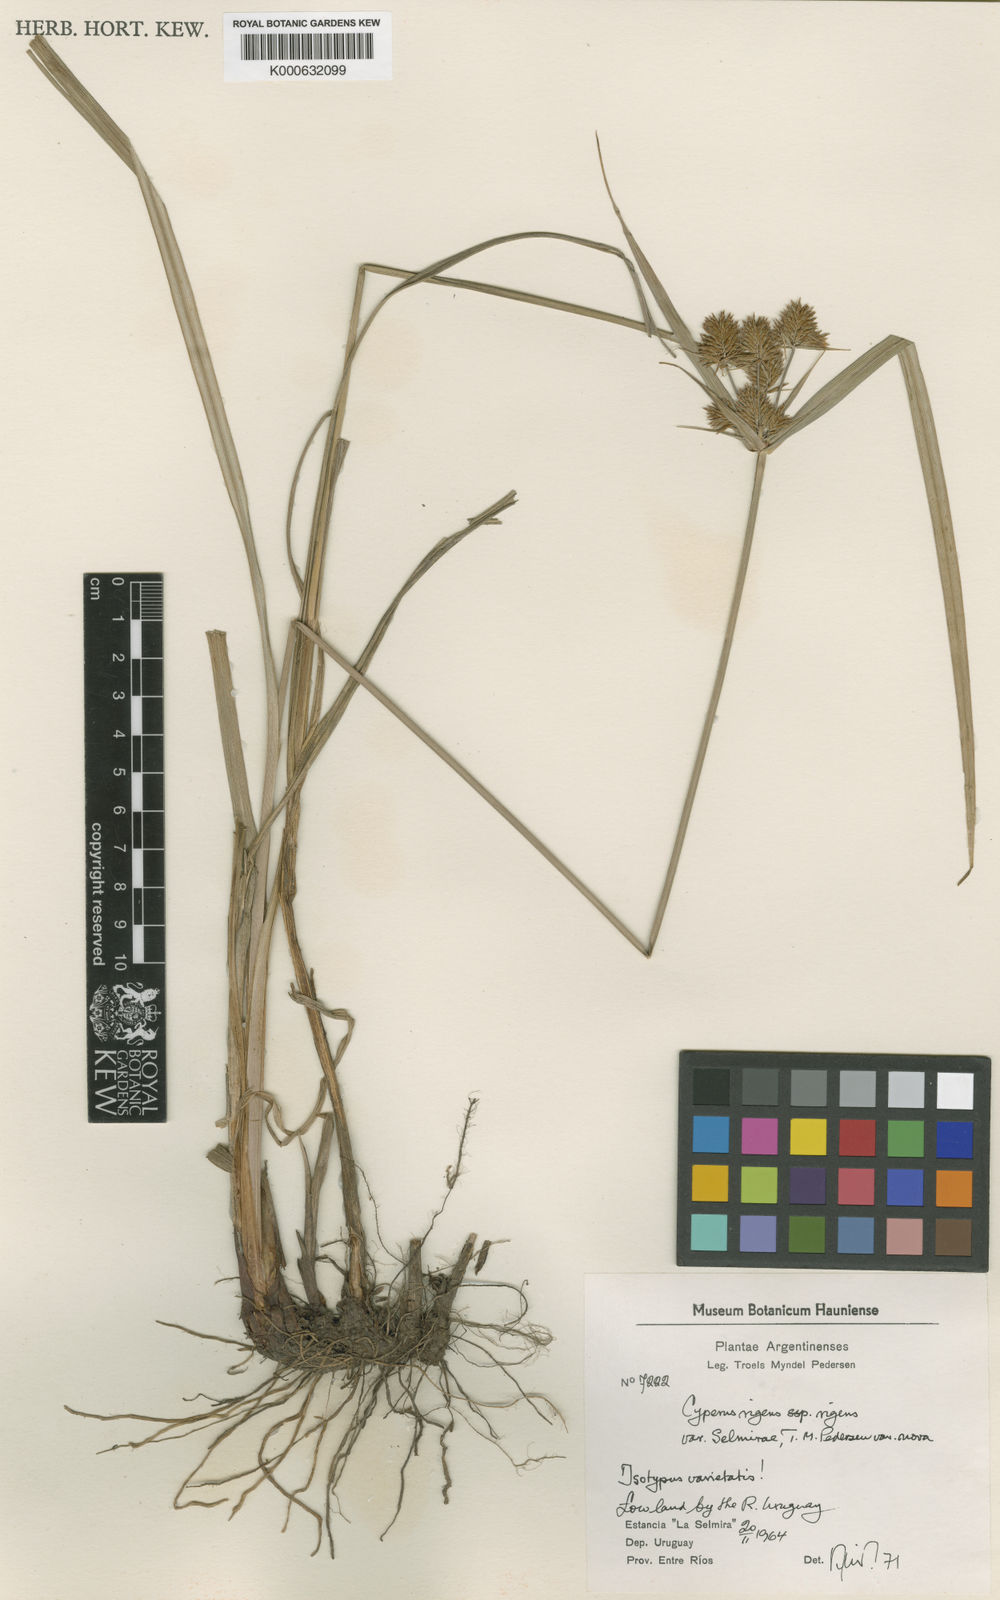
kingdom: Plantae
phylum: Tracheophyta
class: Liliopsida
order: Poales
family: Cyperaceae
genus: Cyperus
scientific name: Cyperus rigens
